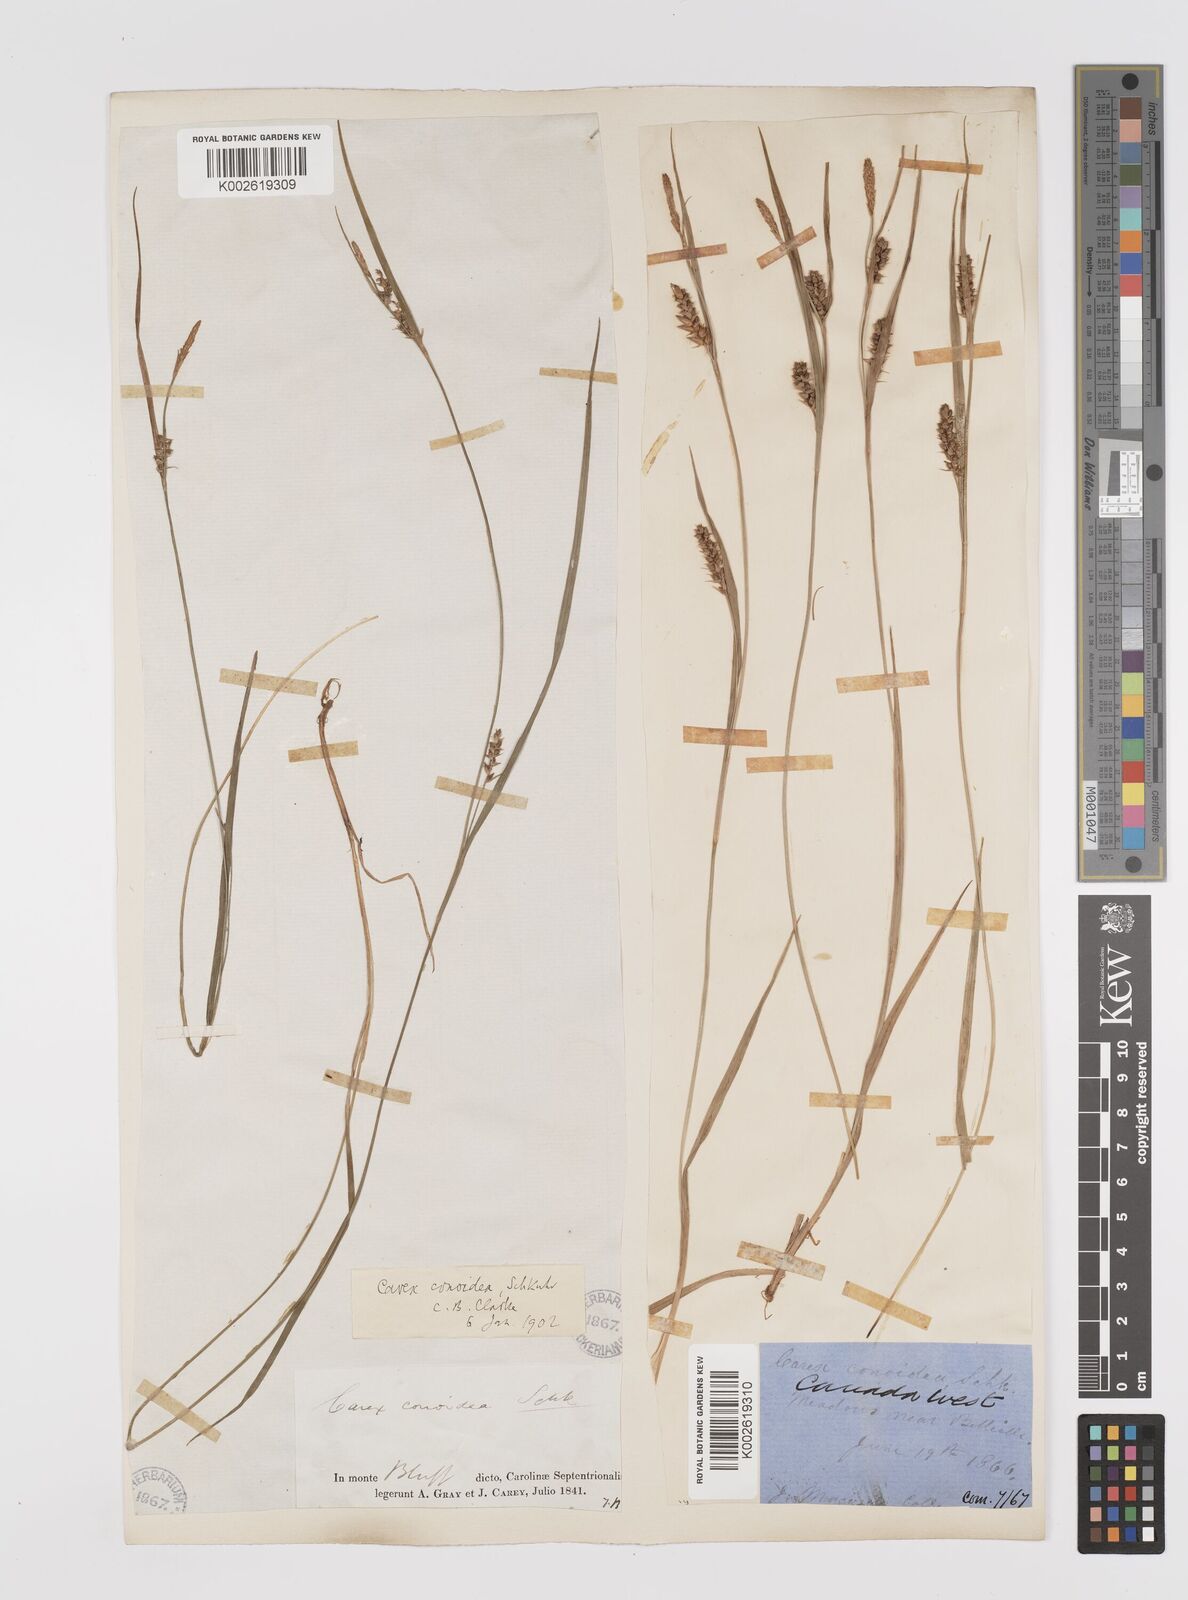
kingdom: Plantae
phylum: Tracheophyta
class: Liliopsida
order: Poales
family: Cyperaceae
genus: Carex
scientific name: Carex conoidea
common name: Cone shaped sedge
